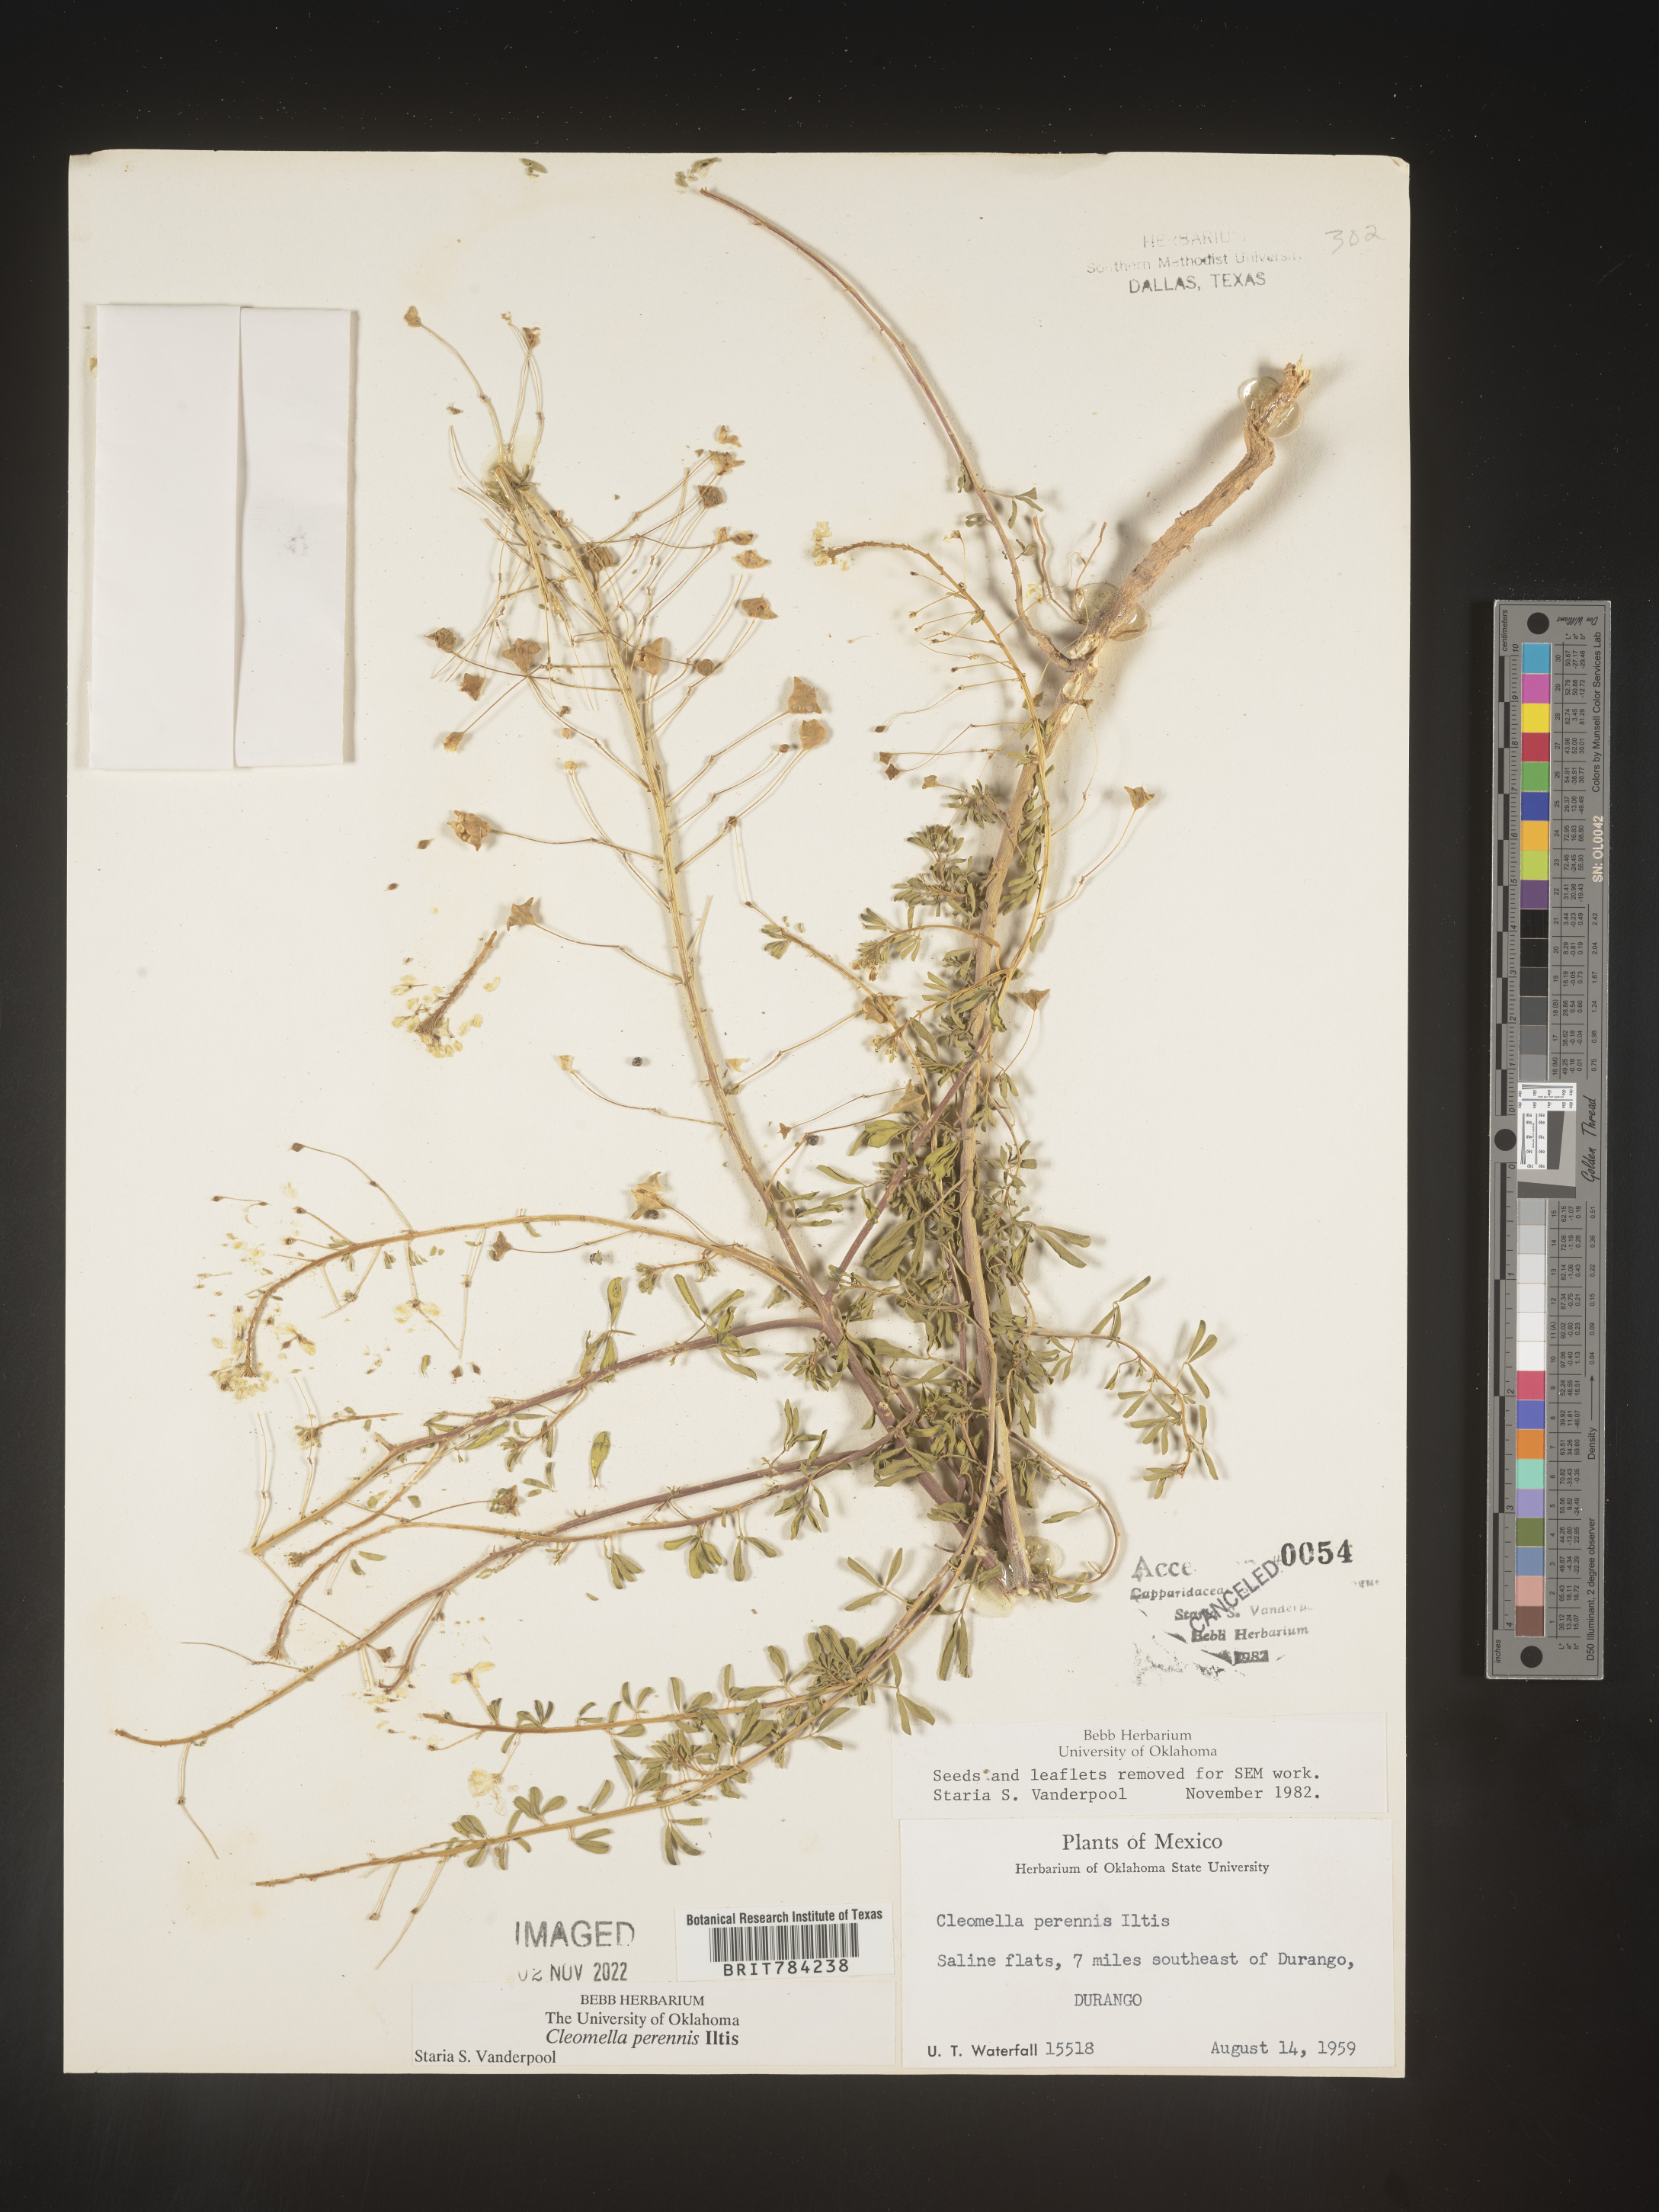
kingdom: Plantae
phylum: Tracheophyta
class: Magnoliopsida
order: Brassicales
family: Cleomaceae
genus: Cleomella
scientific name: Cleomella
